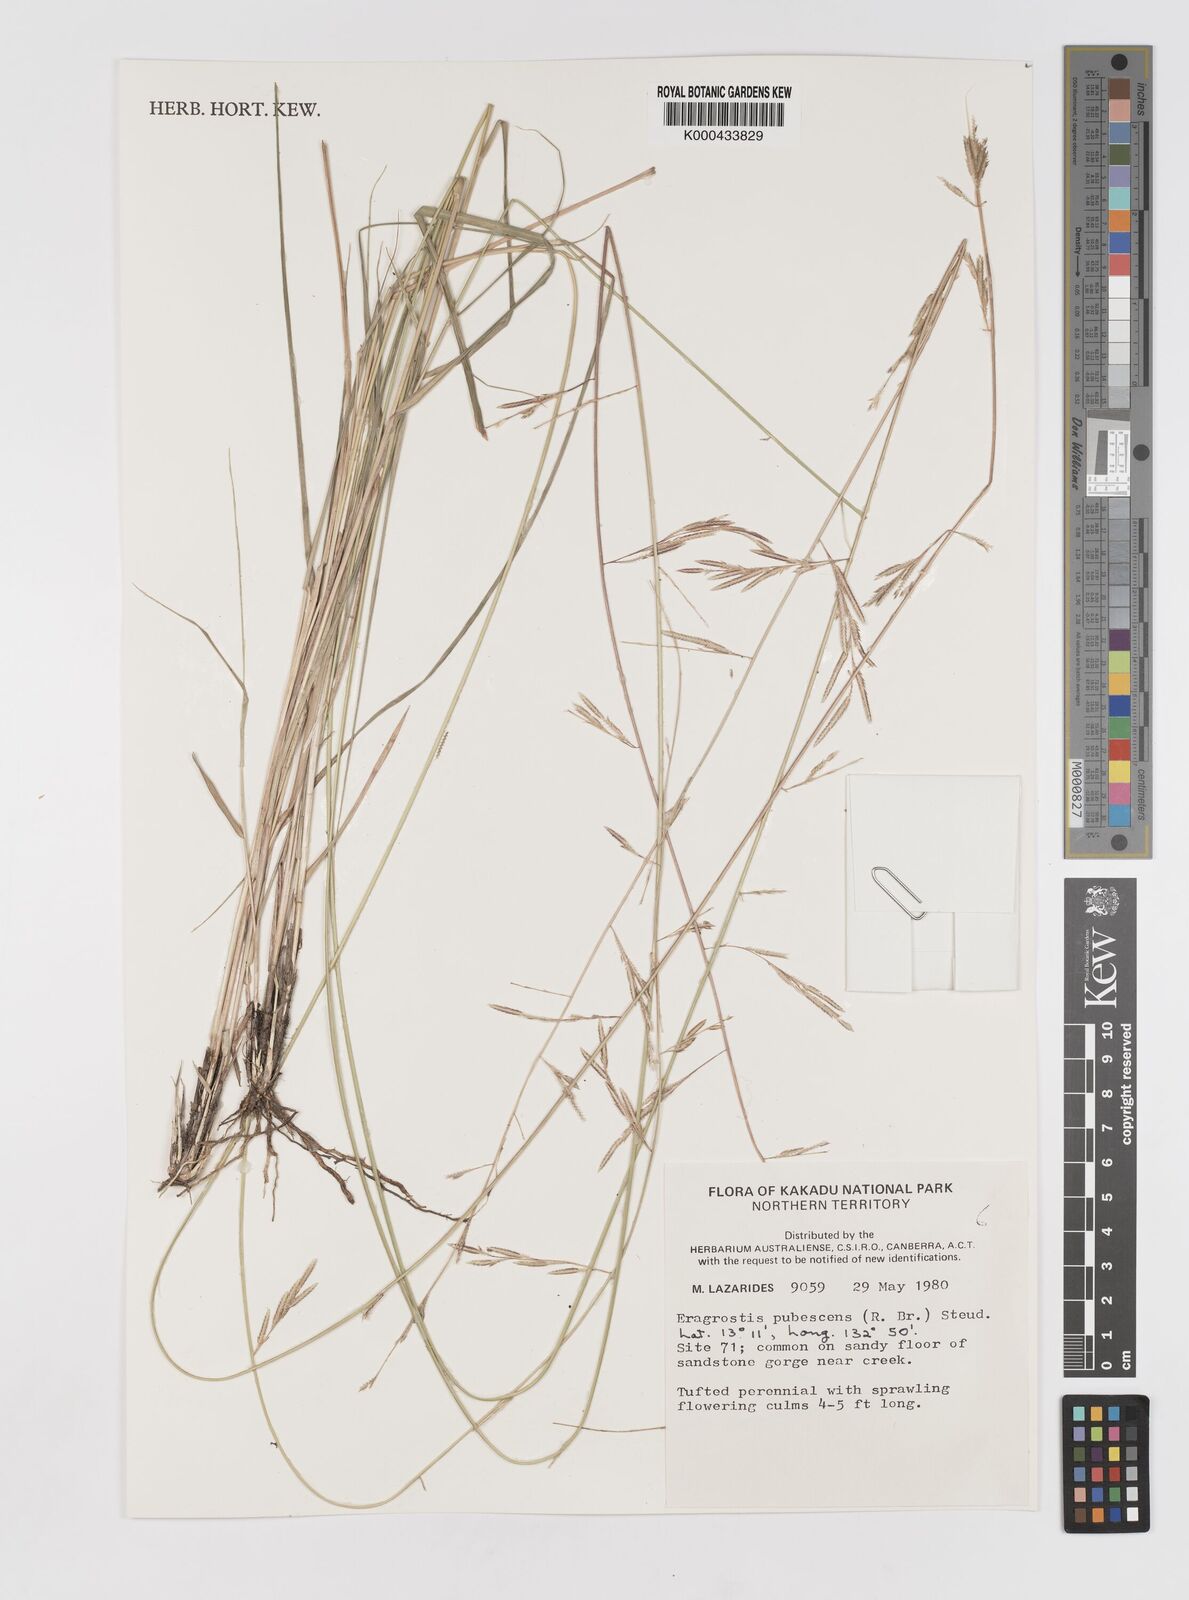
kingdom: Plantae
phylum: Tracheophyta
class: Liliopsida
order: Poales
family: Poaceae
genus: Eragrostis
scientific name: Eragrostis pubescens
